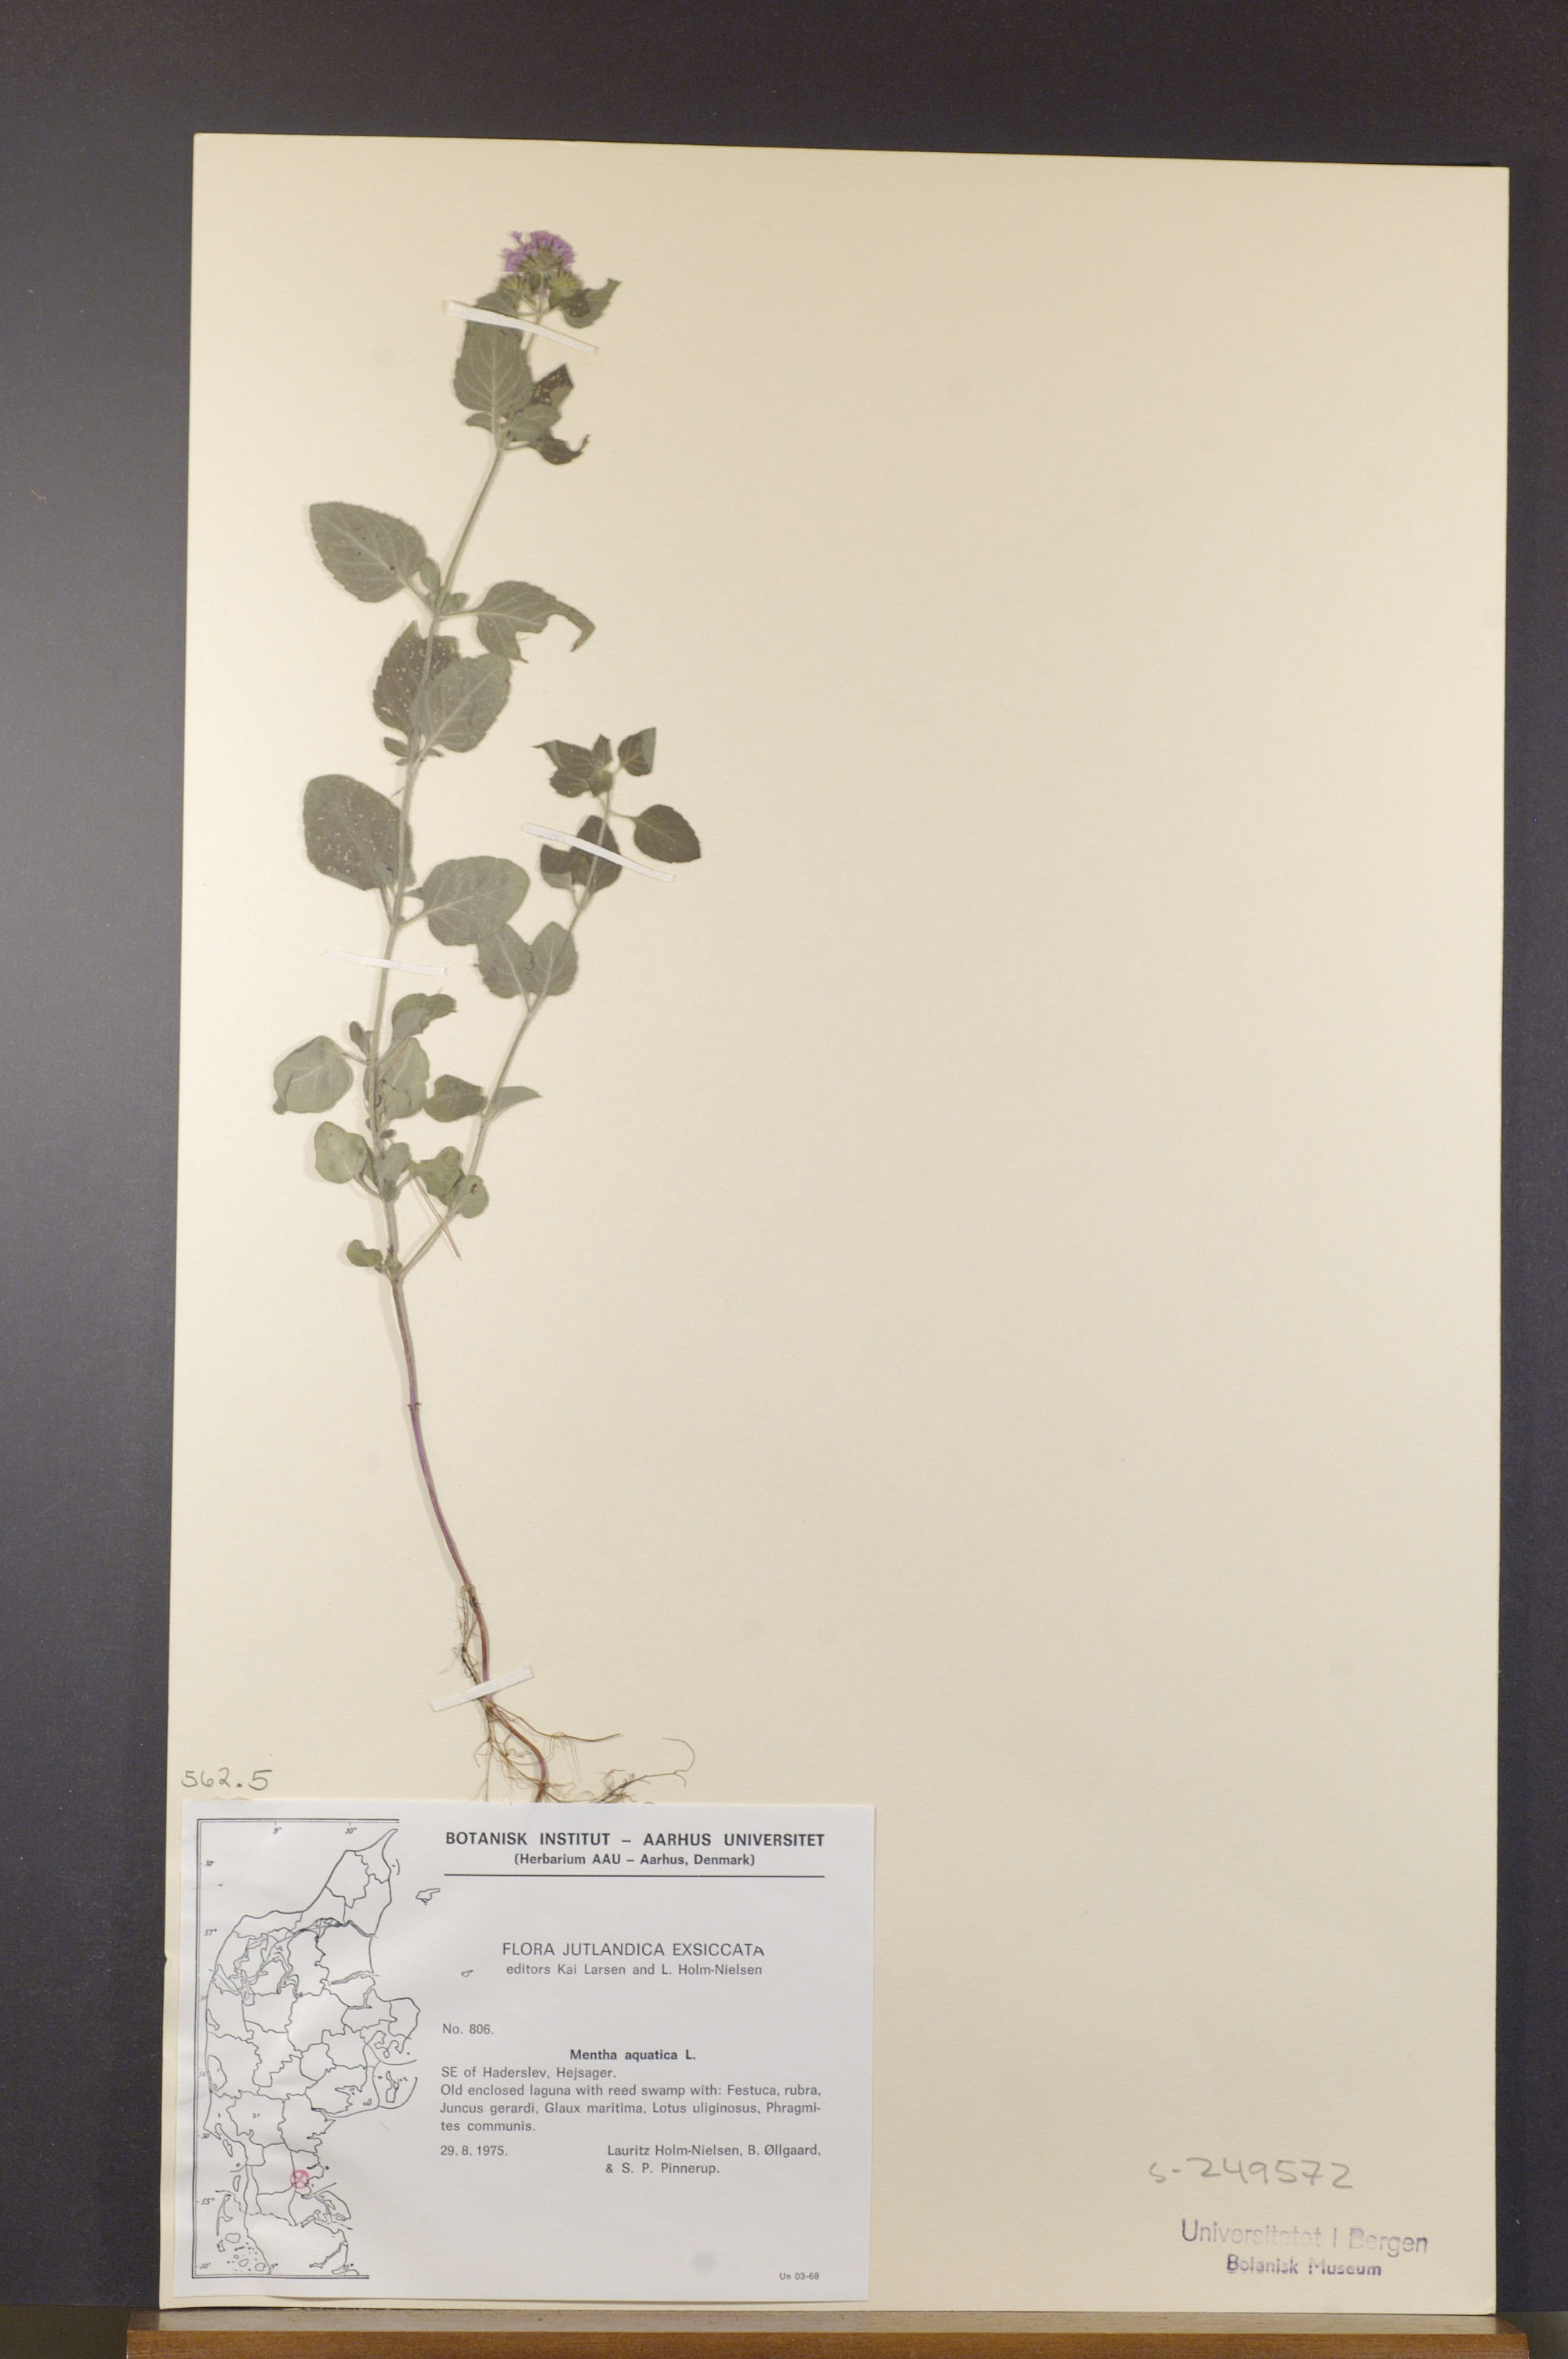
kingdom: Plantae
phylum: Tracheophyta
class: Magnoliopsida
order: Lamiales
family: Lamiaceae
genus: Mentha
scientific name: Mentha aquatica
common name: Water mint
